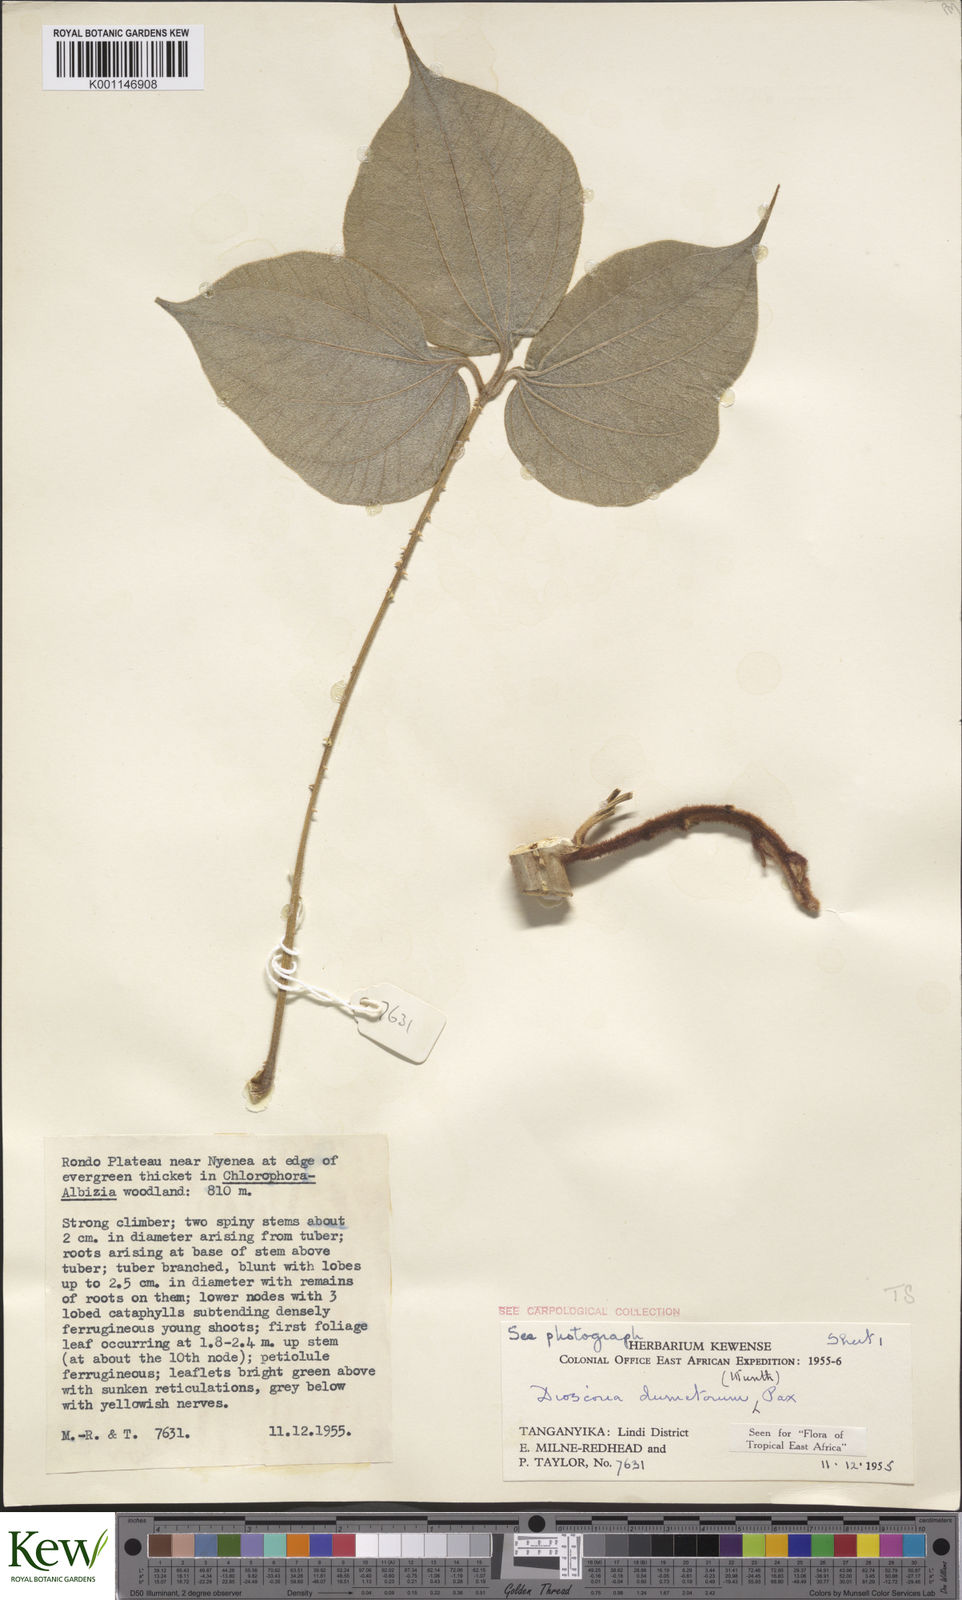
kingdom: Plantae
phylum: Tracheophyta
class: Liliopsida
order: Dioscoreales
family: Dioscoreaceae
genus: Dioscorea
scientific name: Dioscorea dumetorum
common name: African bitter yam
